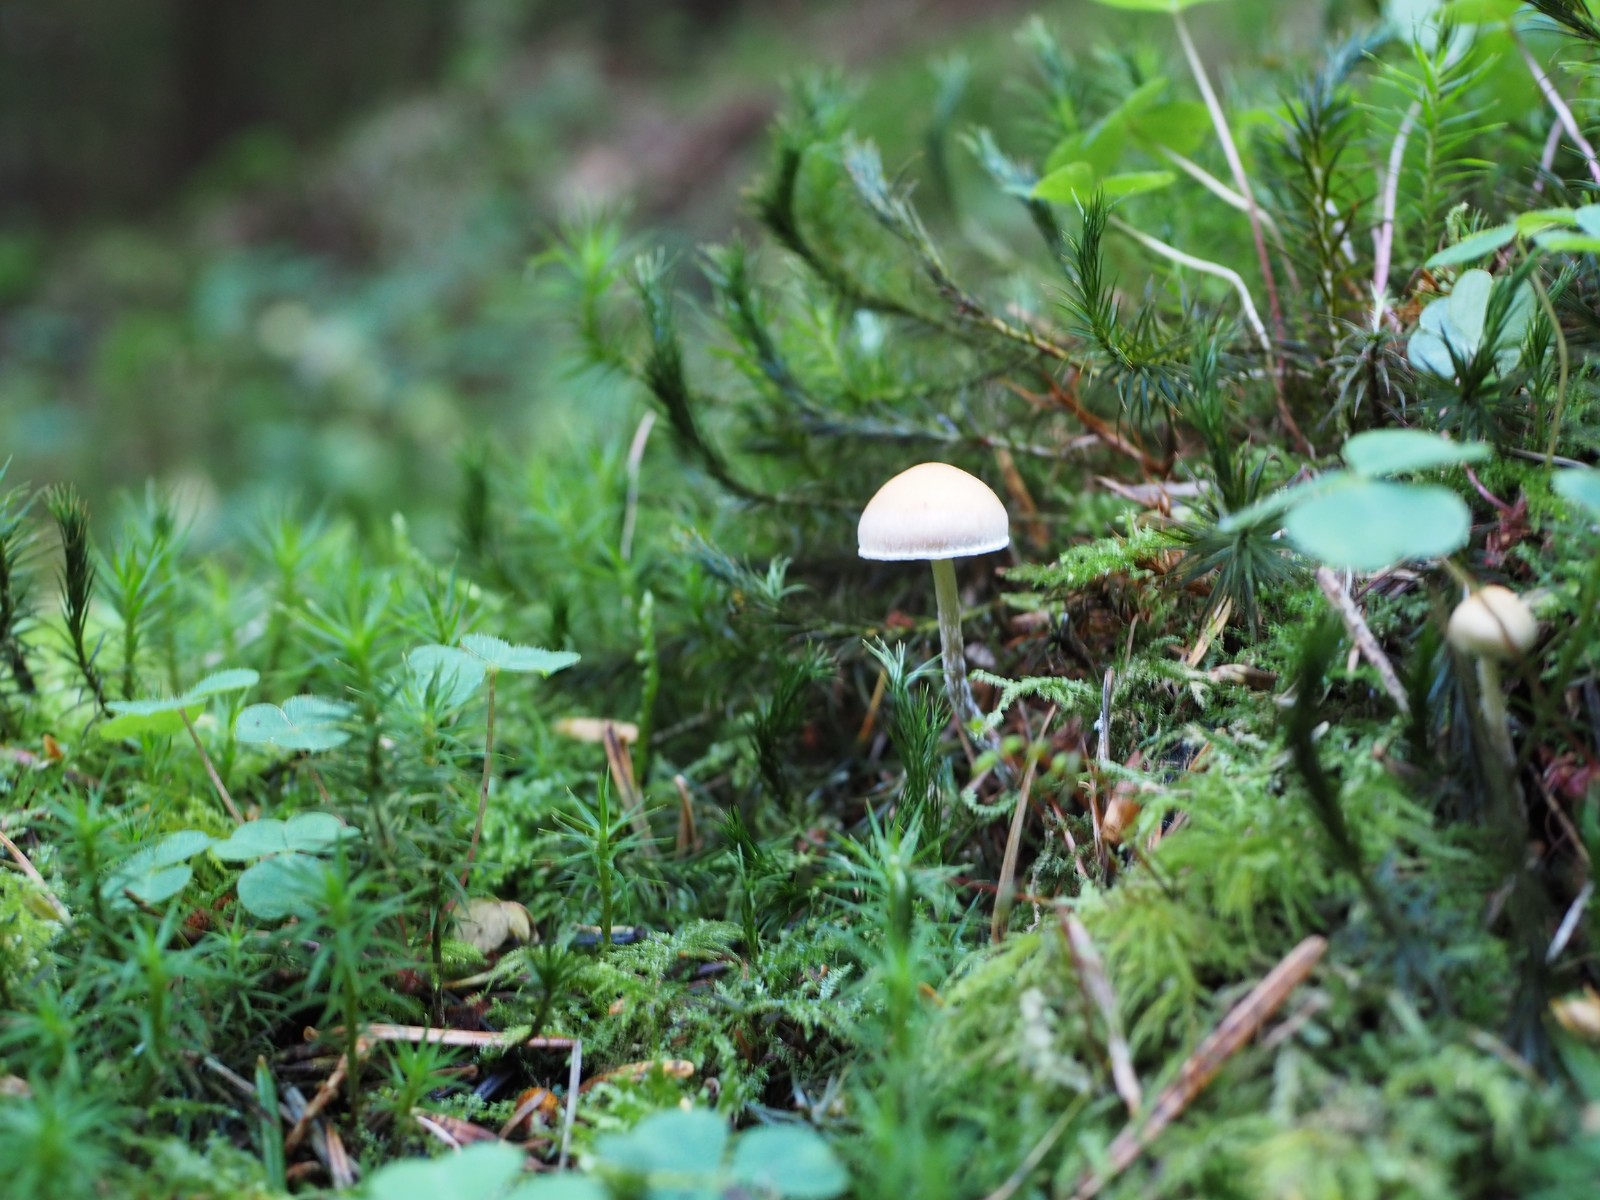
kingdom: Fungi
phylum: Basidiomycota
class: Agaricomycetes
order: Agaricales
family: Strophariaceae
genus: Hypholoma
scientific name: Hypholoma marginatum
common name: enlig svovlhat
